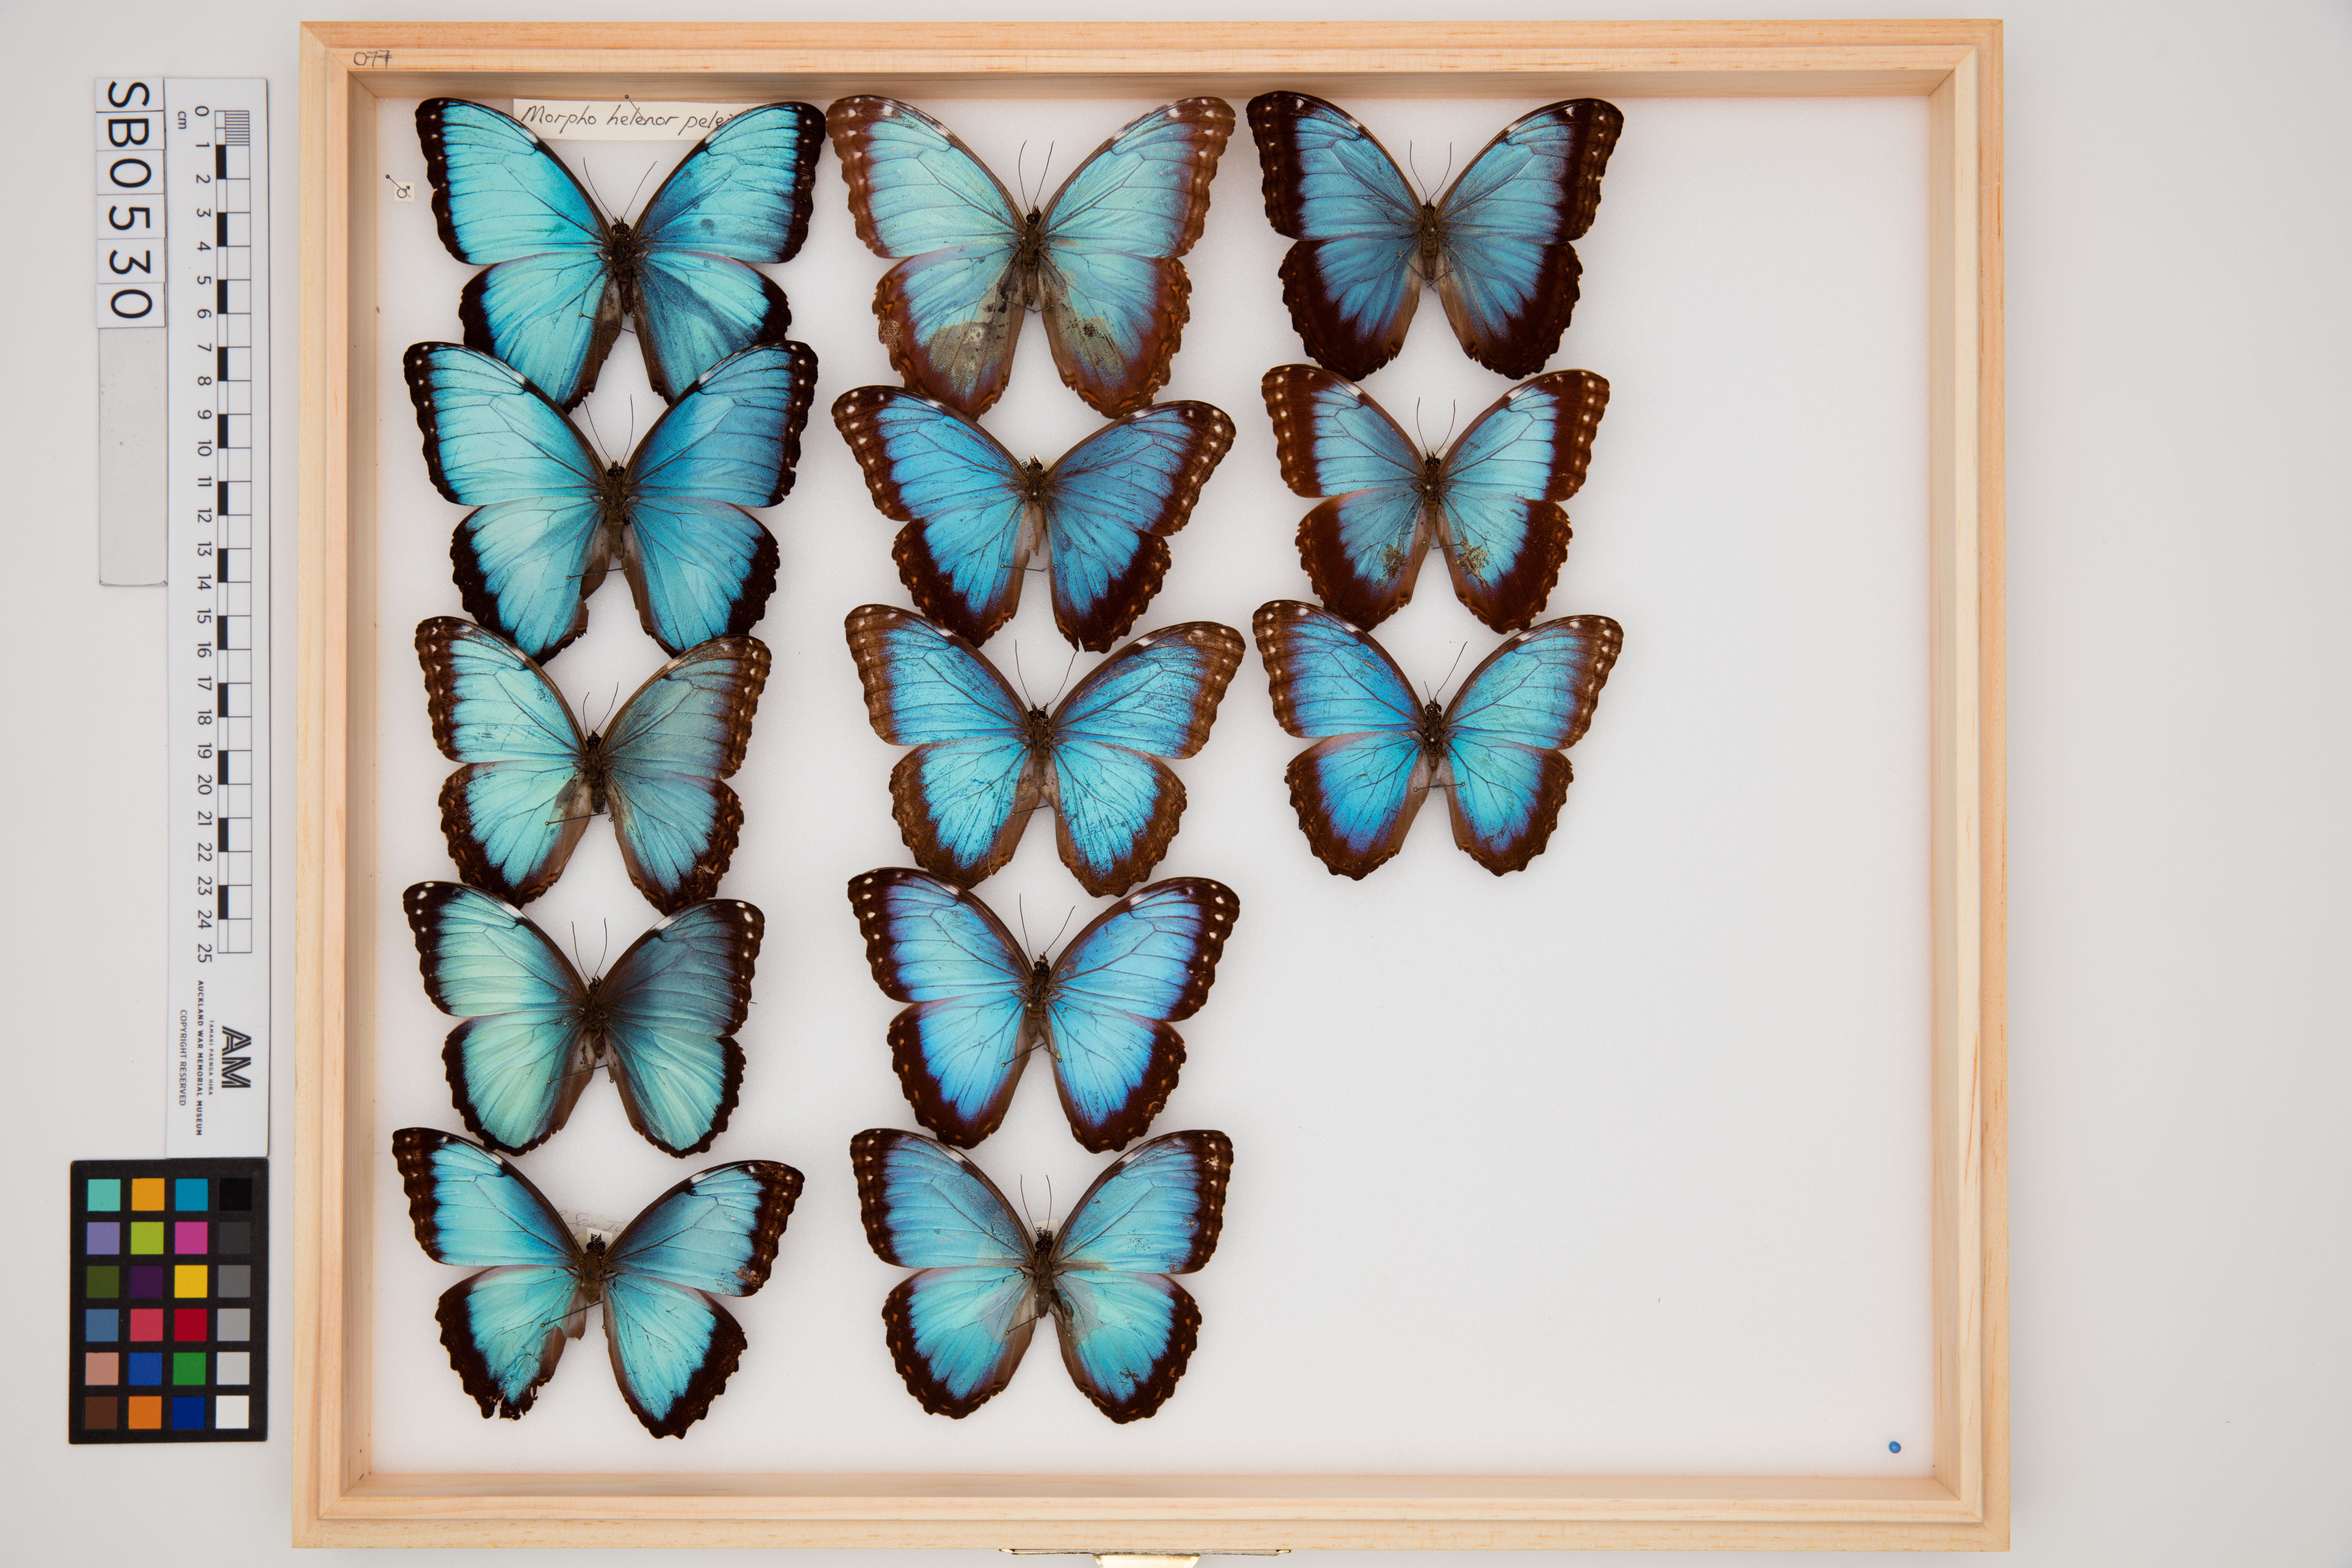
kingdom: Animalia
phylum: Arthropoda
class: Insecta
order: Lepidoptera
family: Nymphalidae
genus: Morpho
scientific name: Morpho helenor
